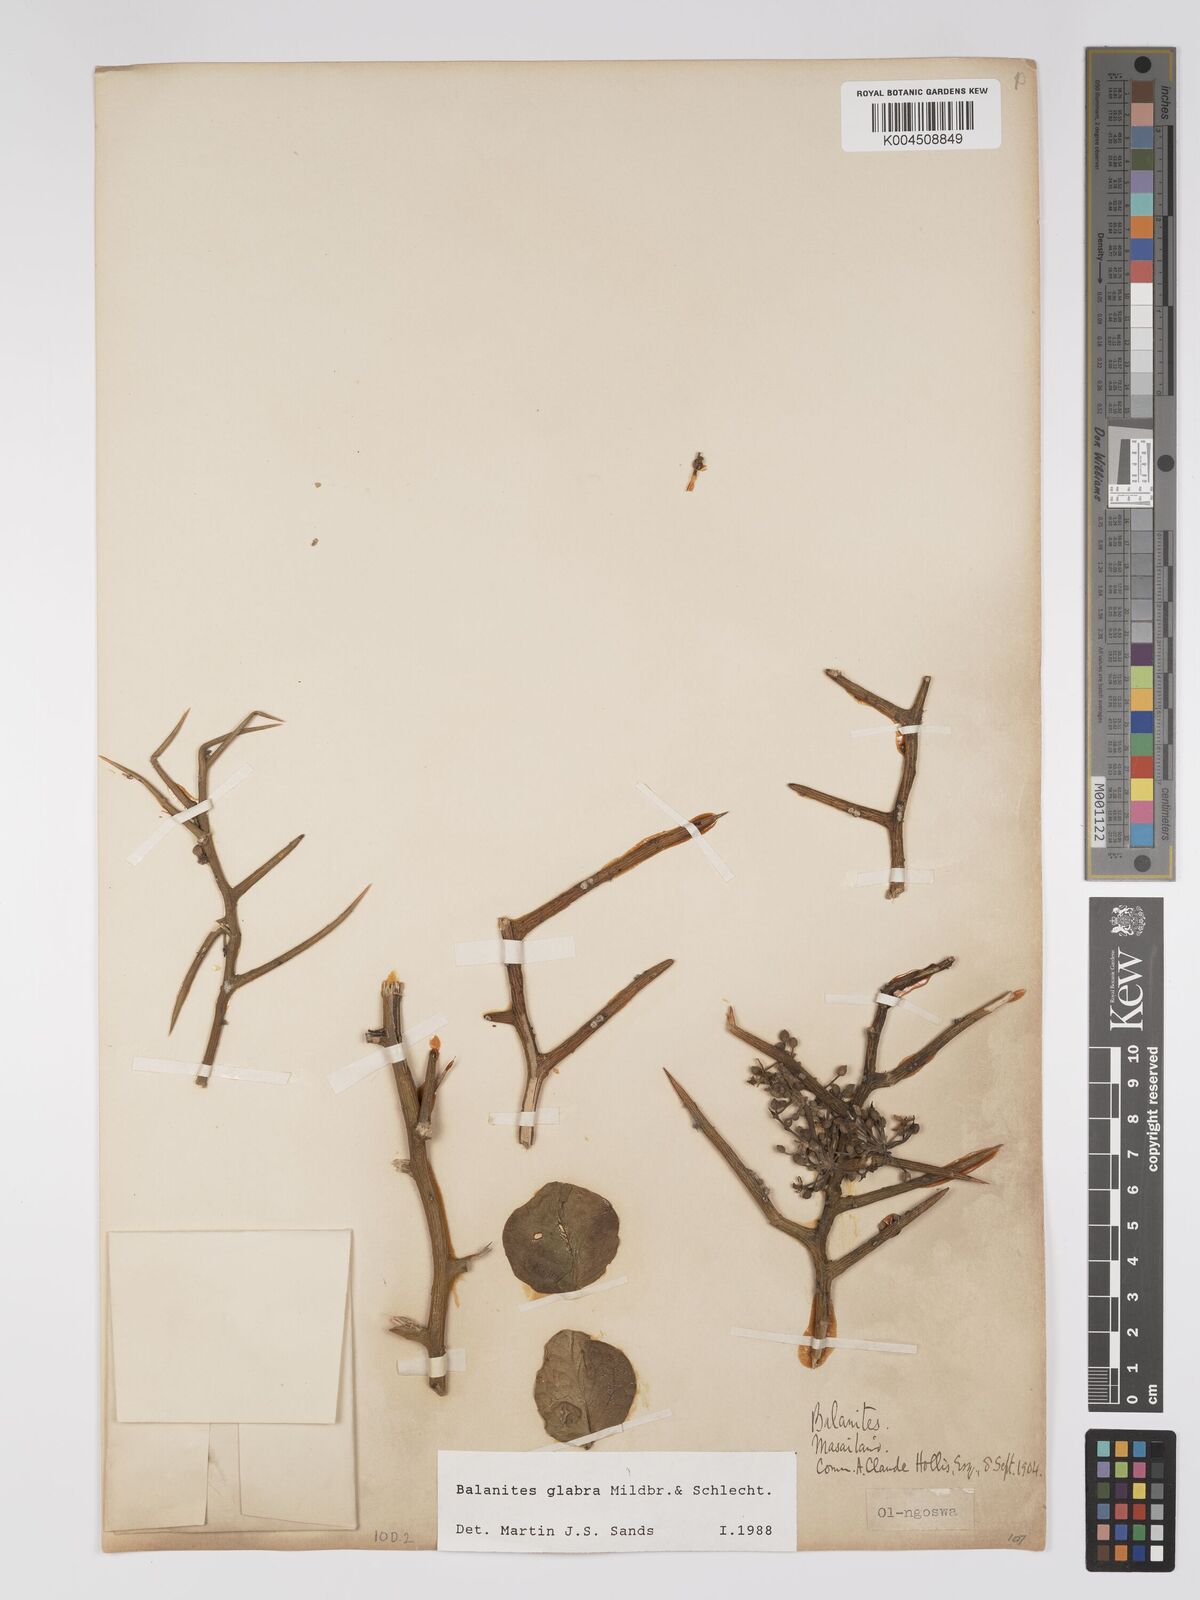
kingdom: Plantae
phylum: Tracheophyta
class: Magnoliopsida
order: Zygophyllales
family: Zygophyllaceae
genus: Balanites
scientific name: Balanites glabra
